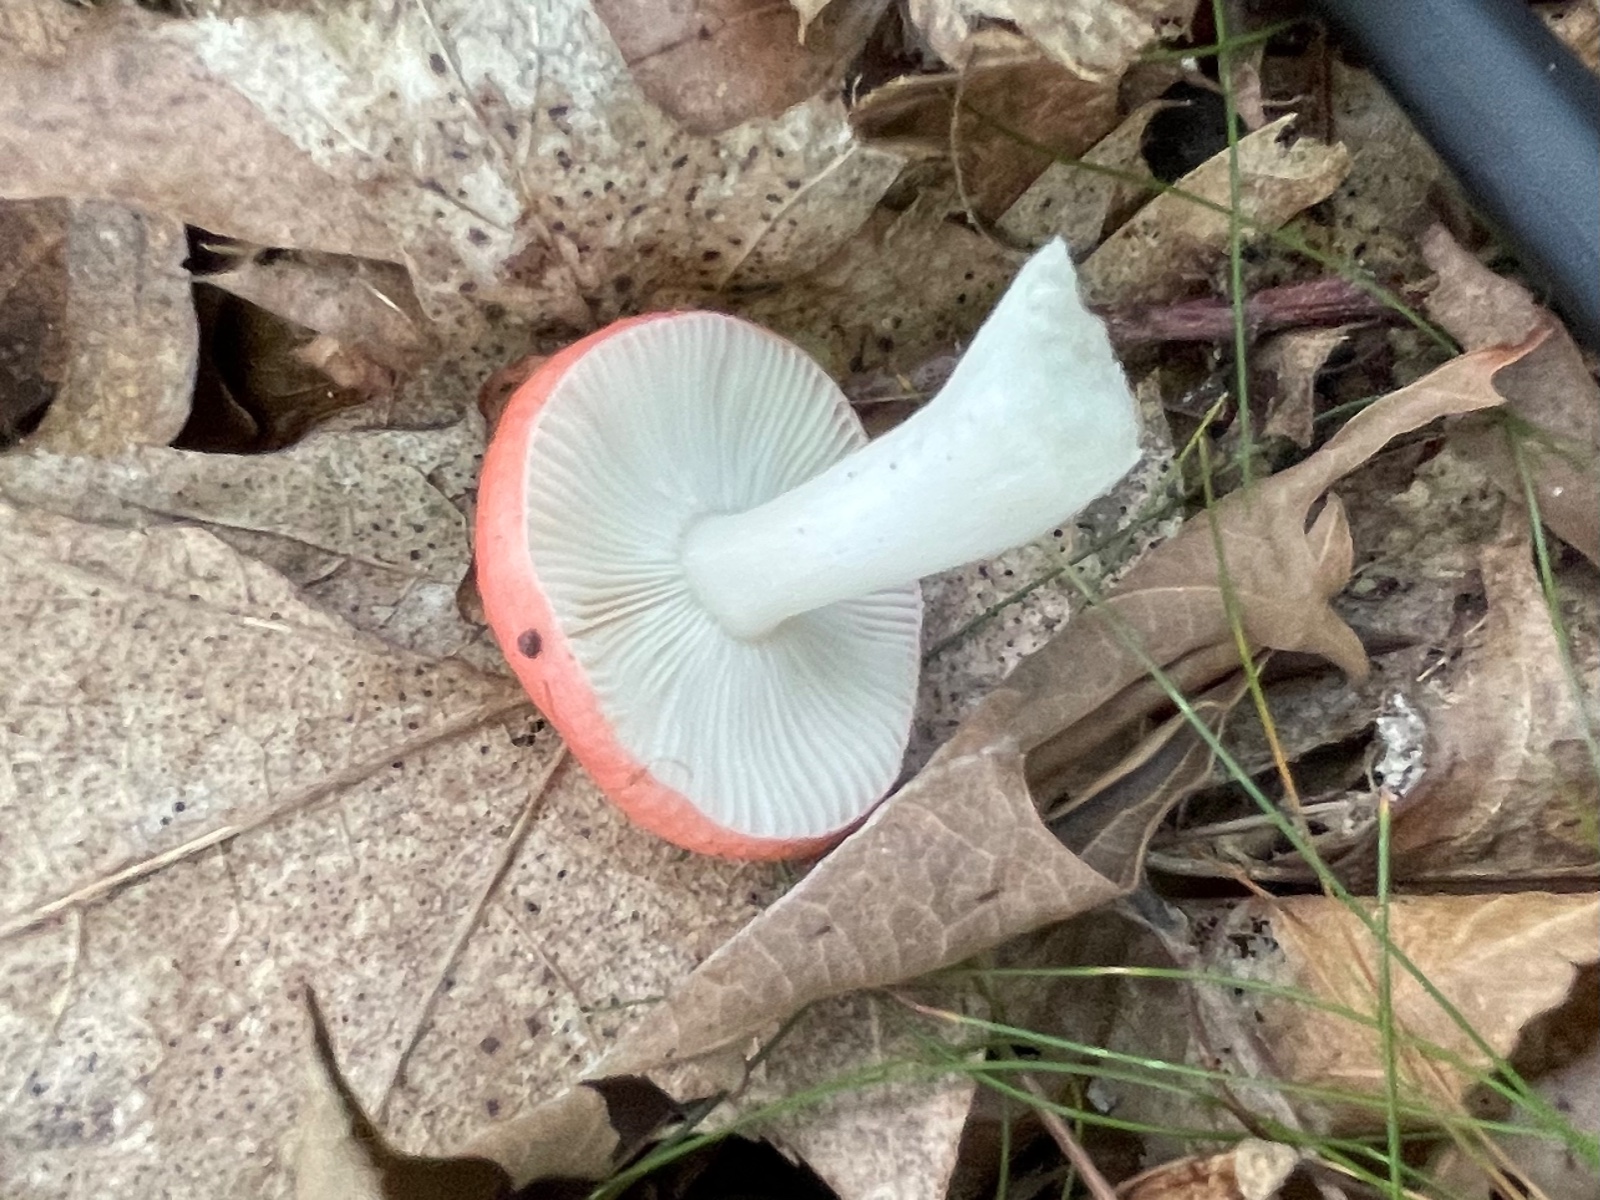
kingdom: Fungi
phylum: Basidiomycota
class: Agaricomycetes
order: Russulales
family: Russulaceae
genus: Russula
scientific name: Russula
